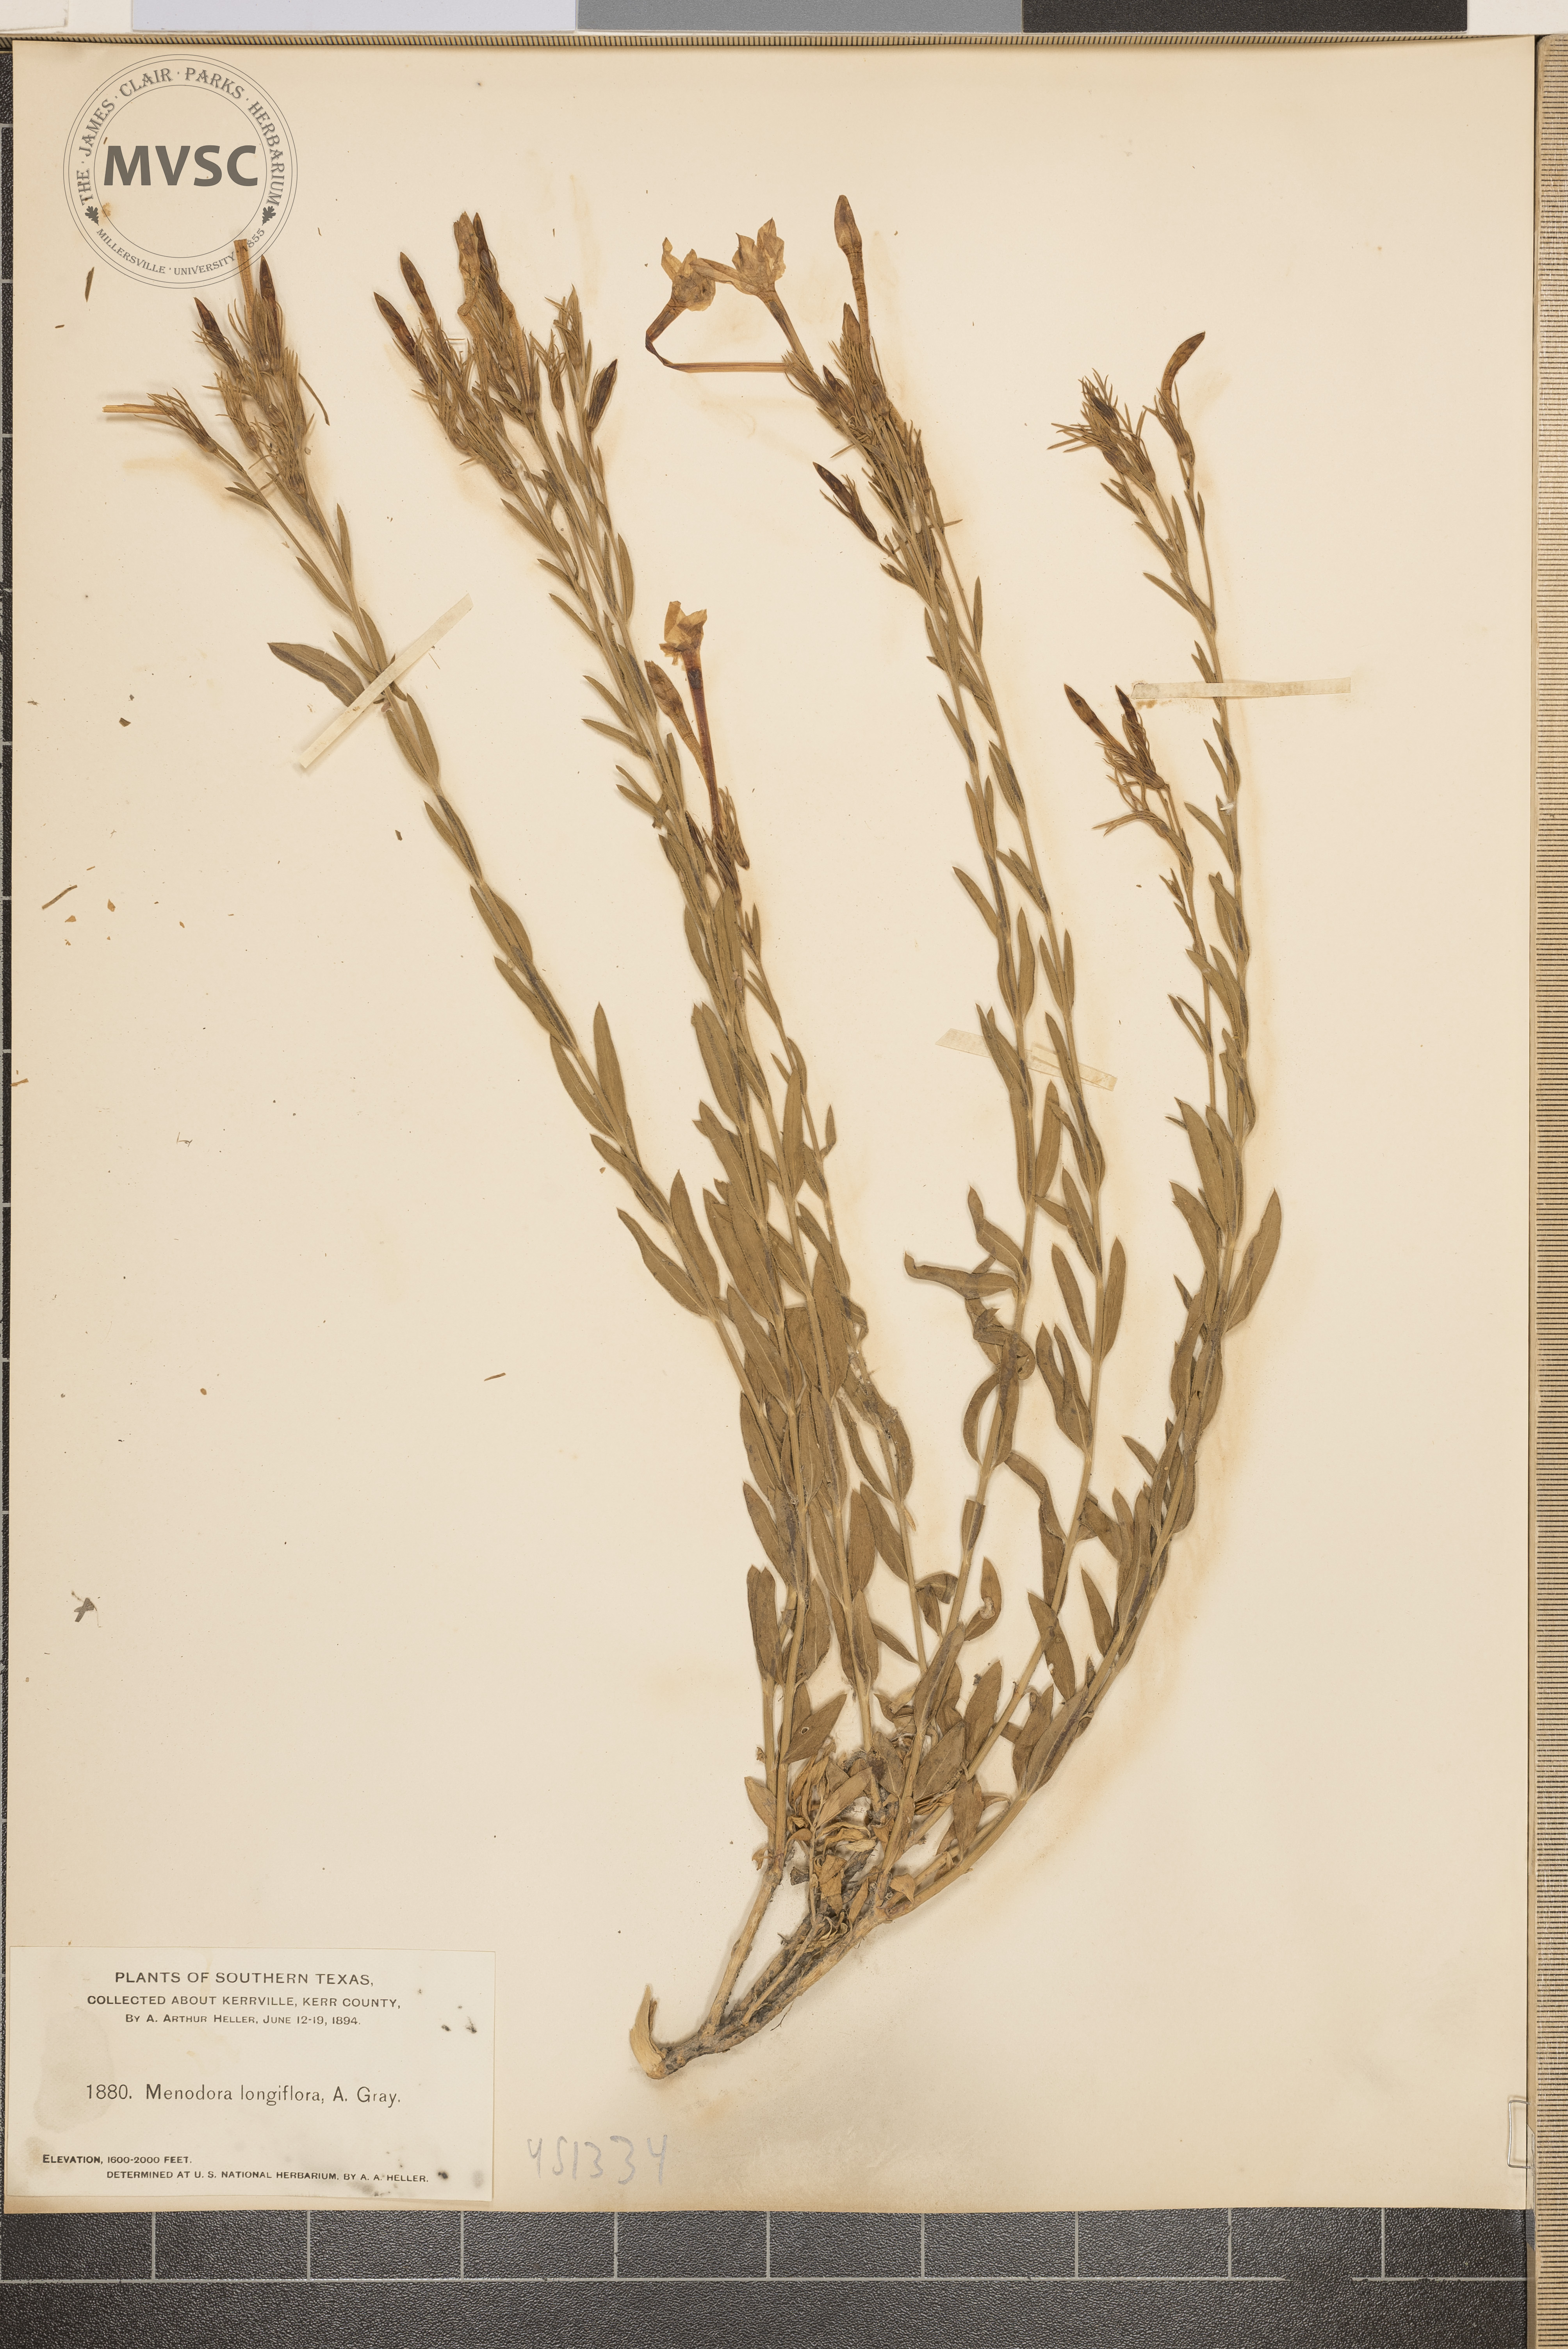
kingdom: Plantae
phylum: Tracheophyta
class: Magnoliopsida
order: Lamiales
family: Oleaceae
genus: Menodora
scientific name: Menodora longiflora
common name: Showy menodora
